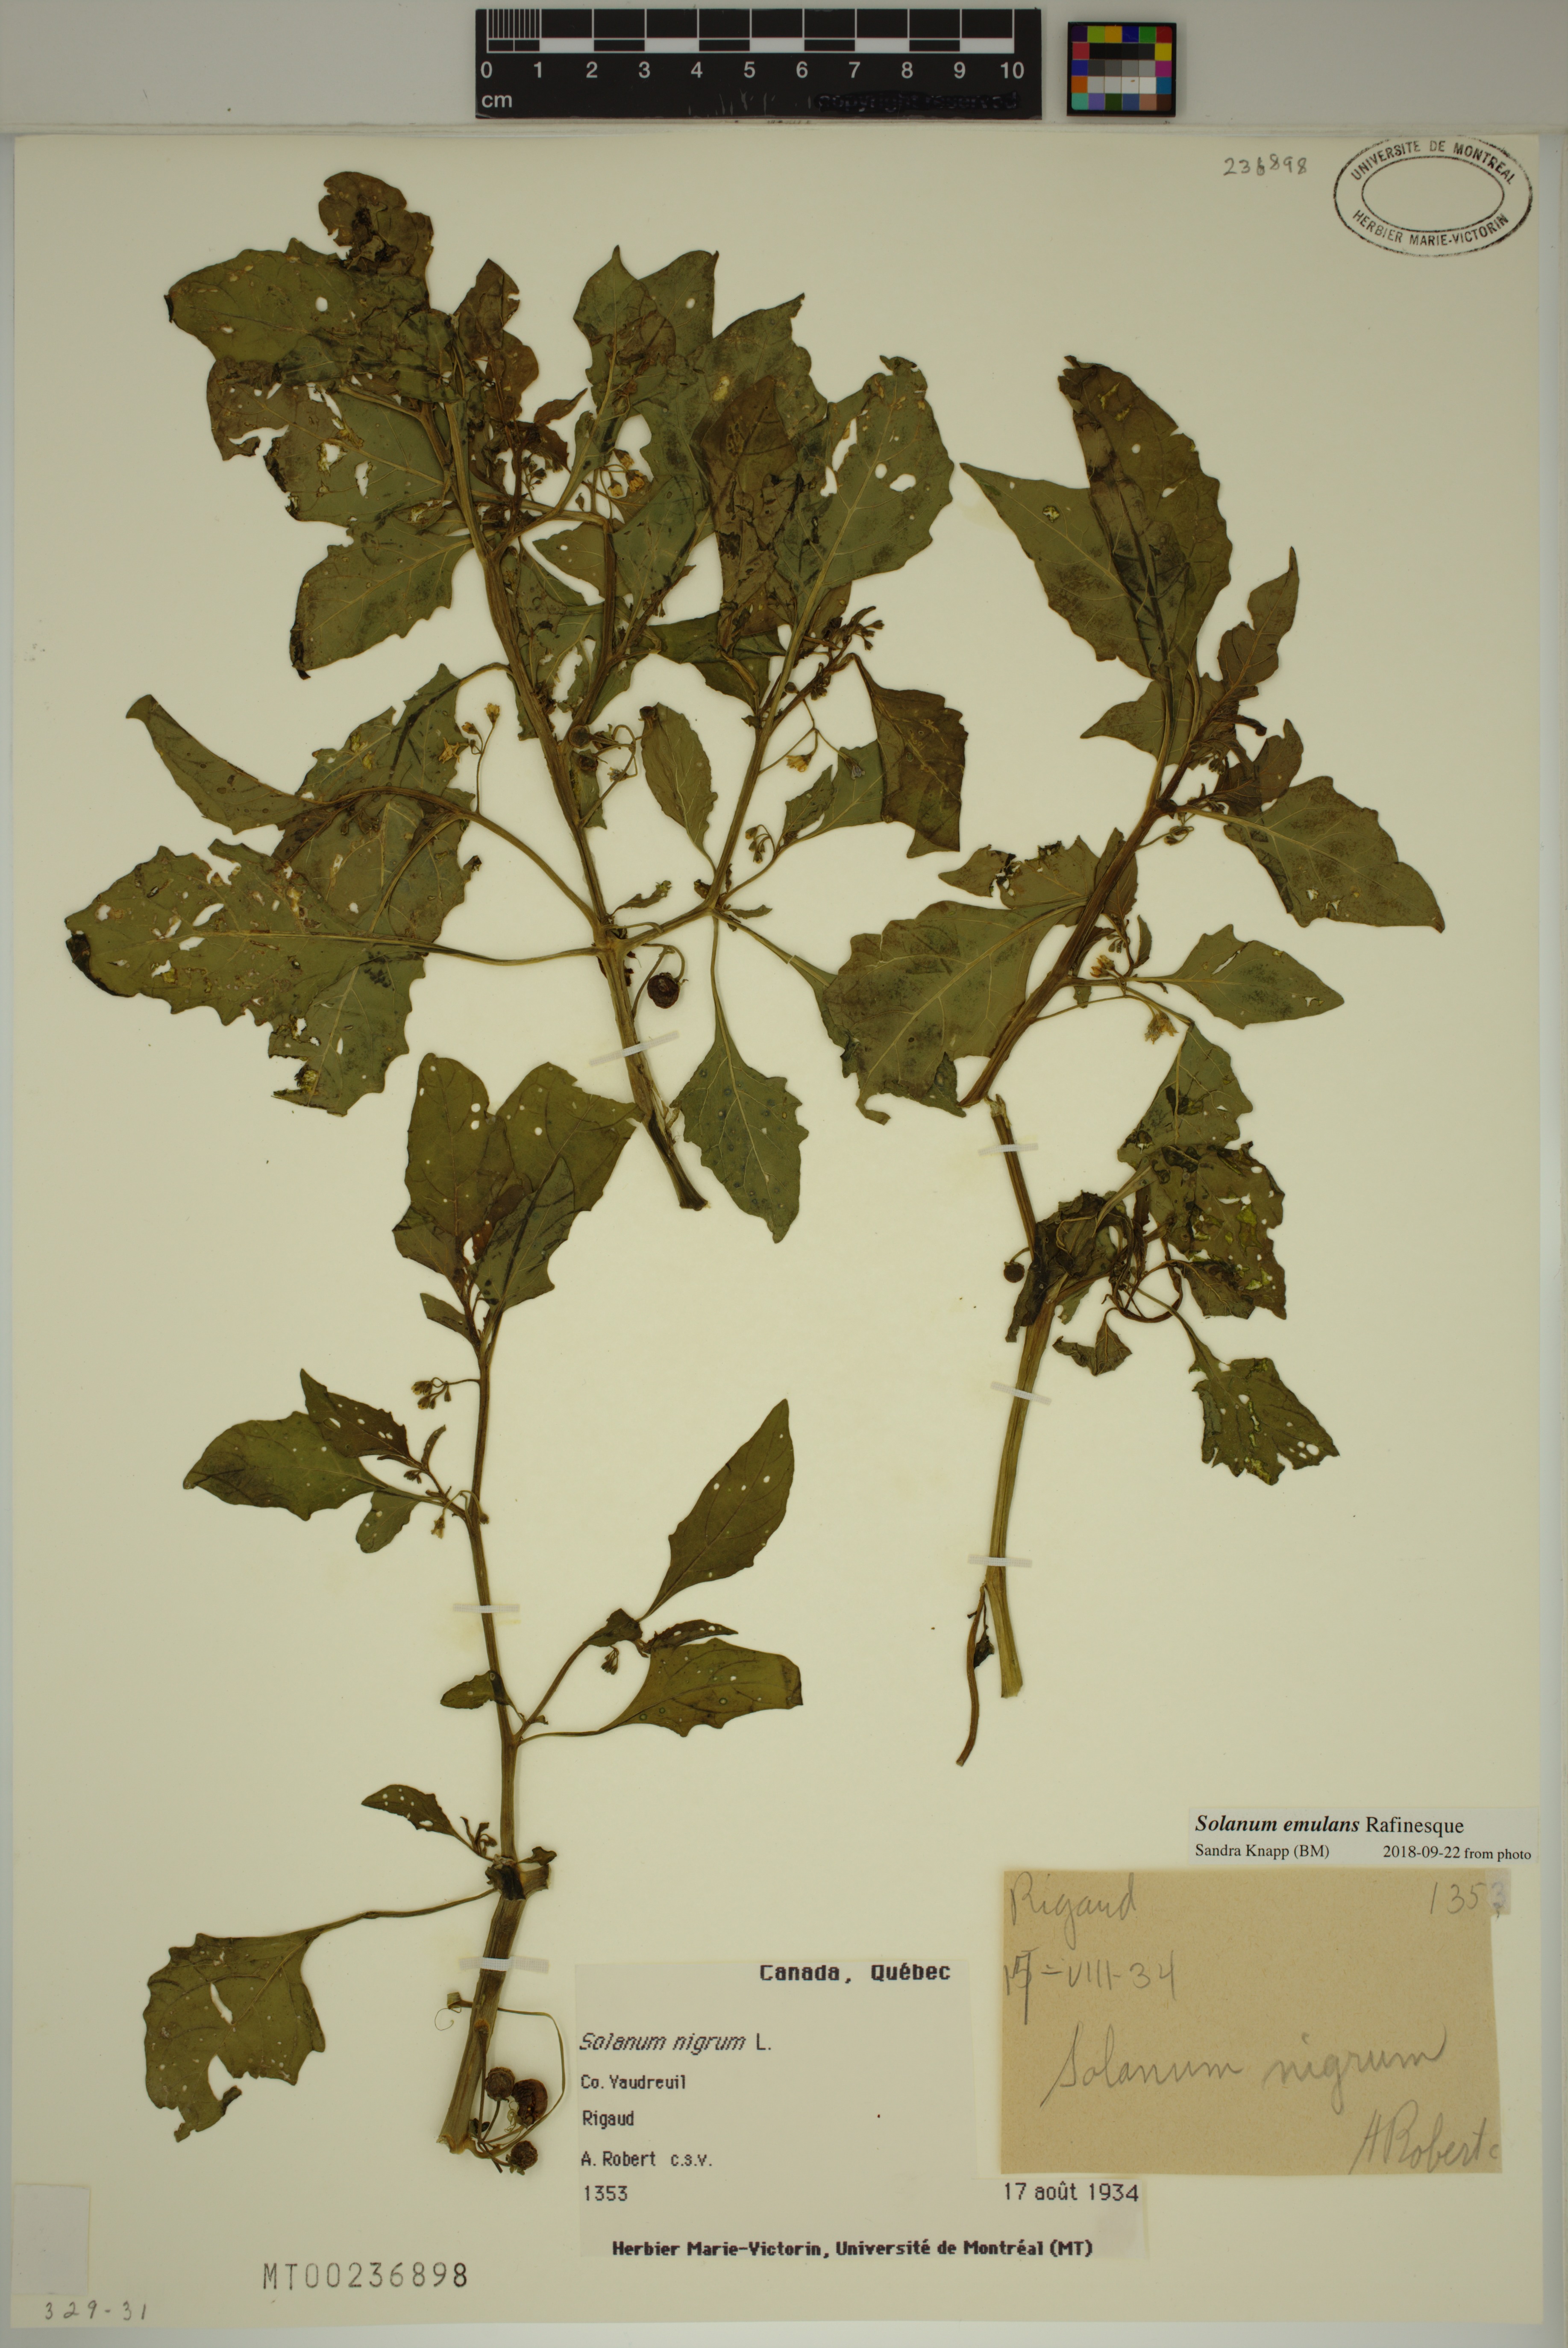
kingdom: Plantae
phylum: Tracheophyta
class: Magnoliopsida
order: Solanales
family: Solanaceae
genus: Solanum
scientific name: Solanum nigrum
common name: Black nightshade
